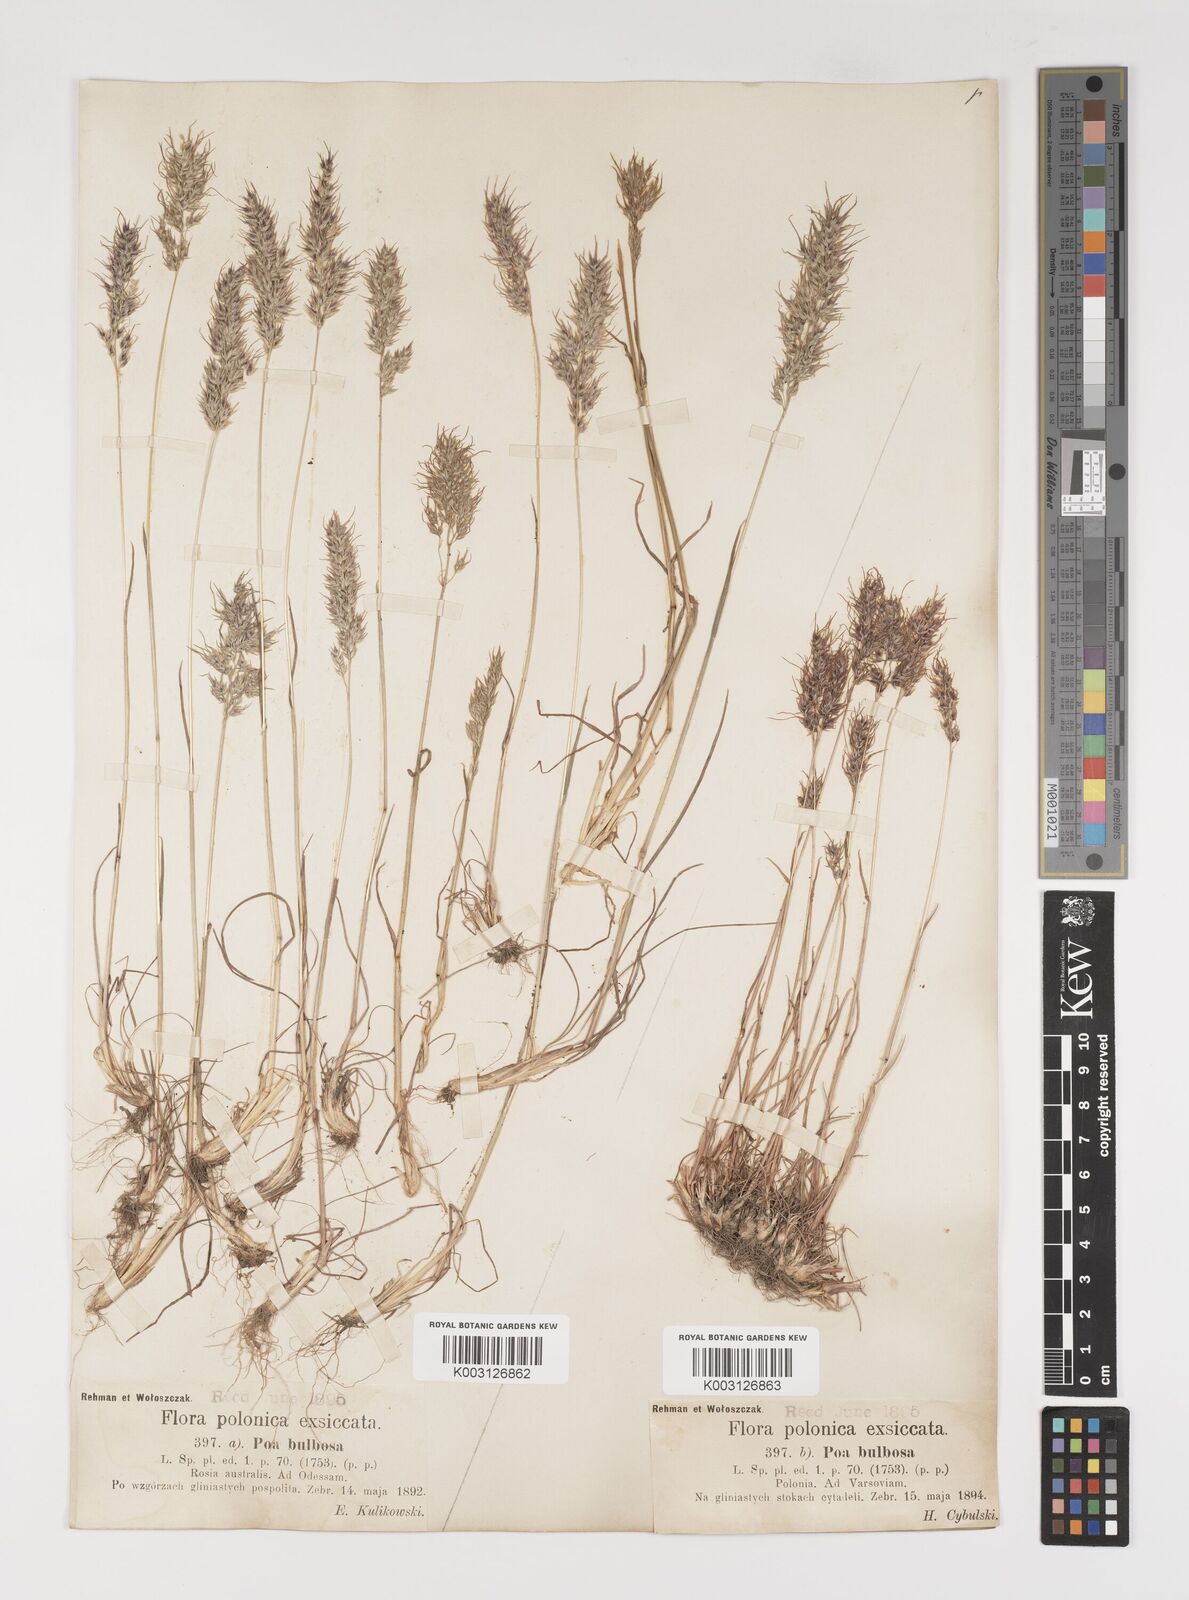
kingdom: Plantae
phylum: Tracheophyta
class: Liliopsida
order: Poales
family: Poaceae
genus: Poa
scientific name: Poa bulbosa
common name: Bulbous bluegrass
